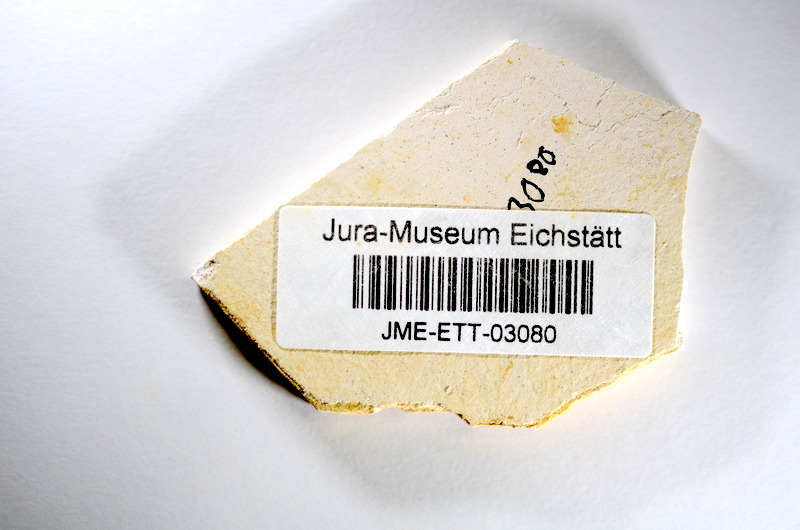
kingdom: Animalia
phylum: Chordata
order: Salmoniformes
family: Orthogonikleithridae
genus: Orthogonikleithrus
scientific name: Orthogonikleithrus hoelli
